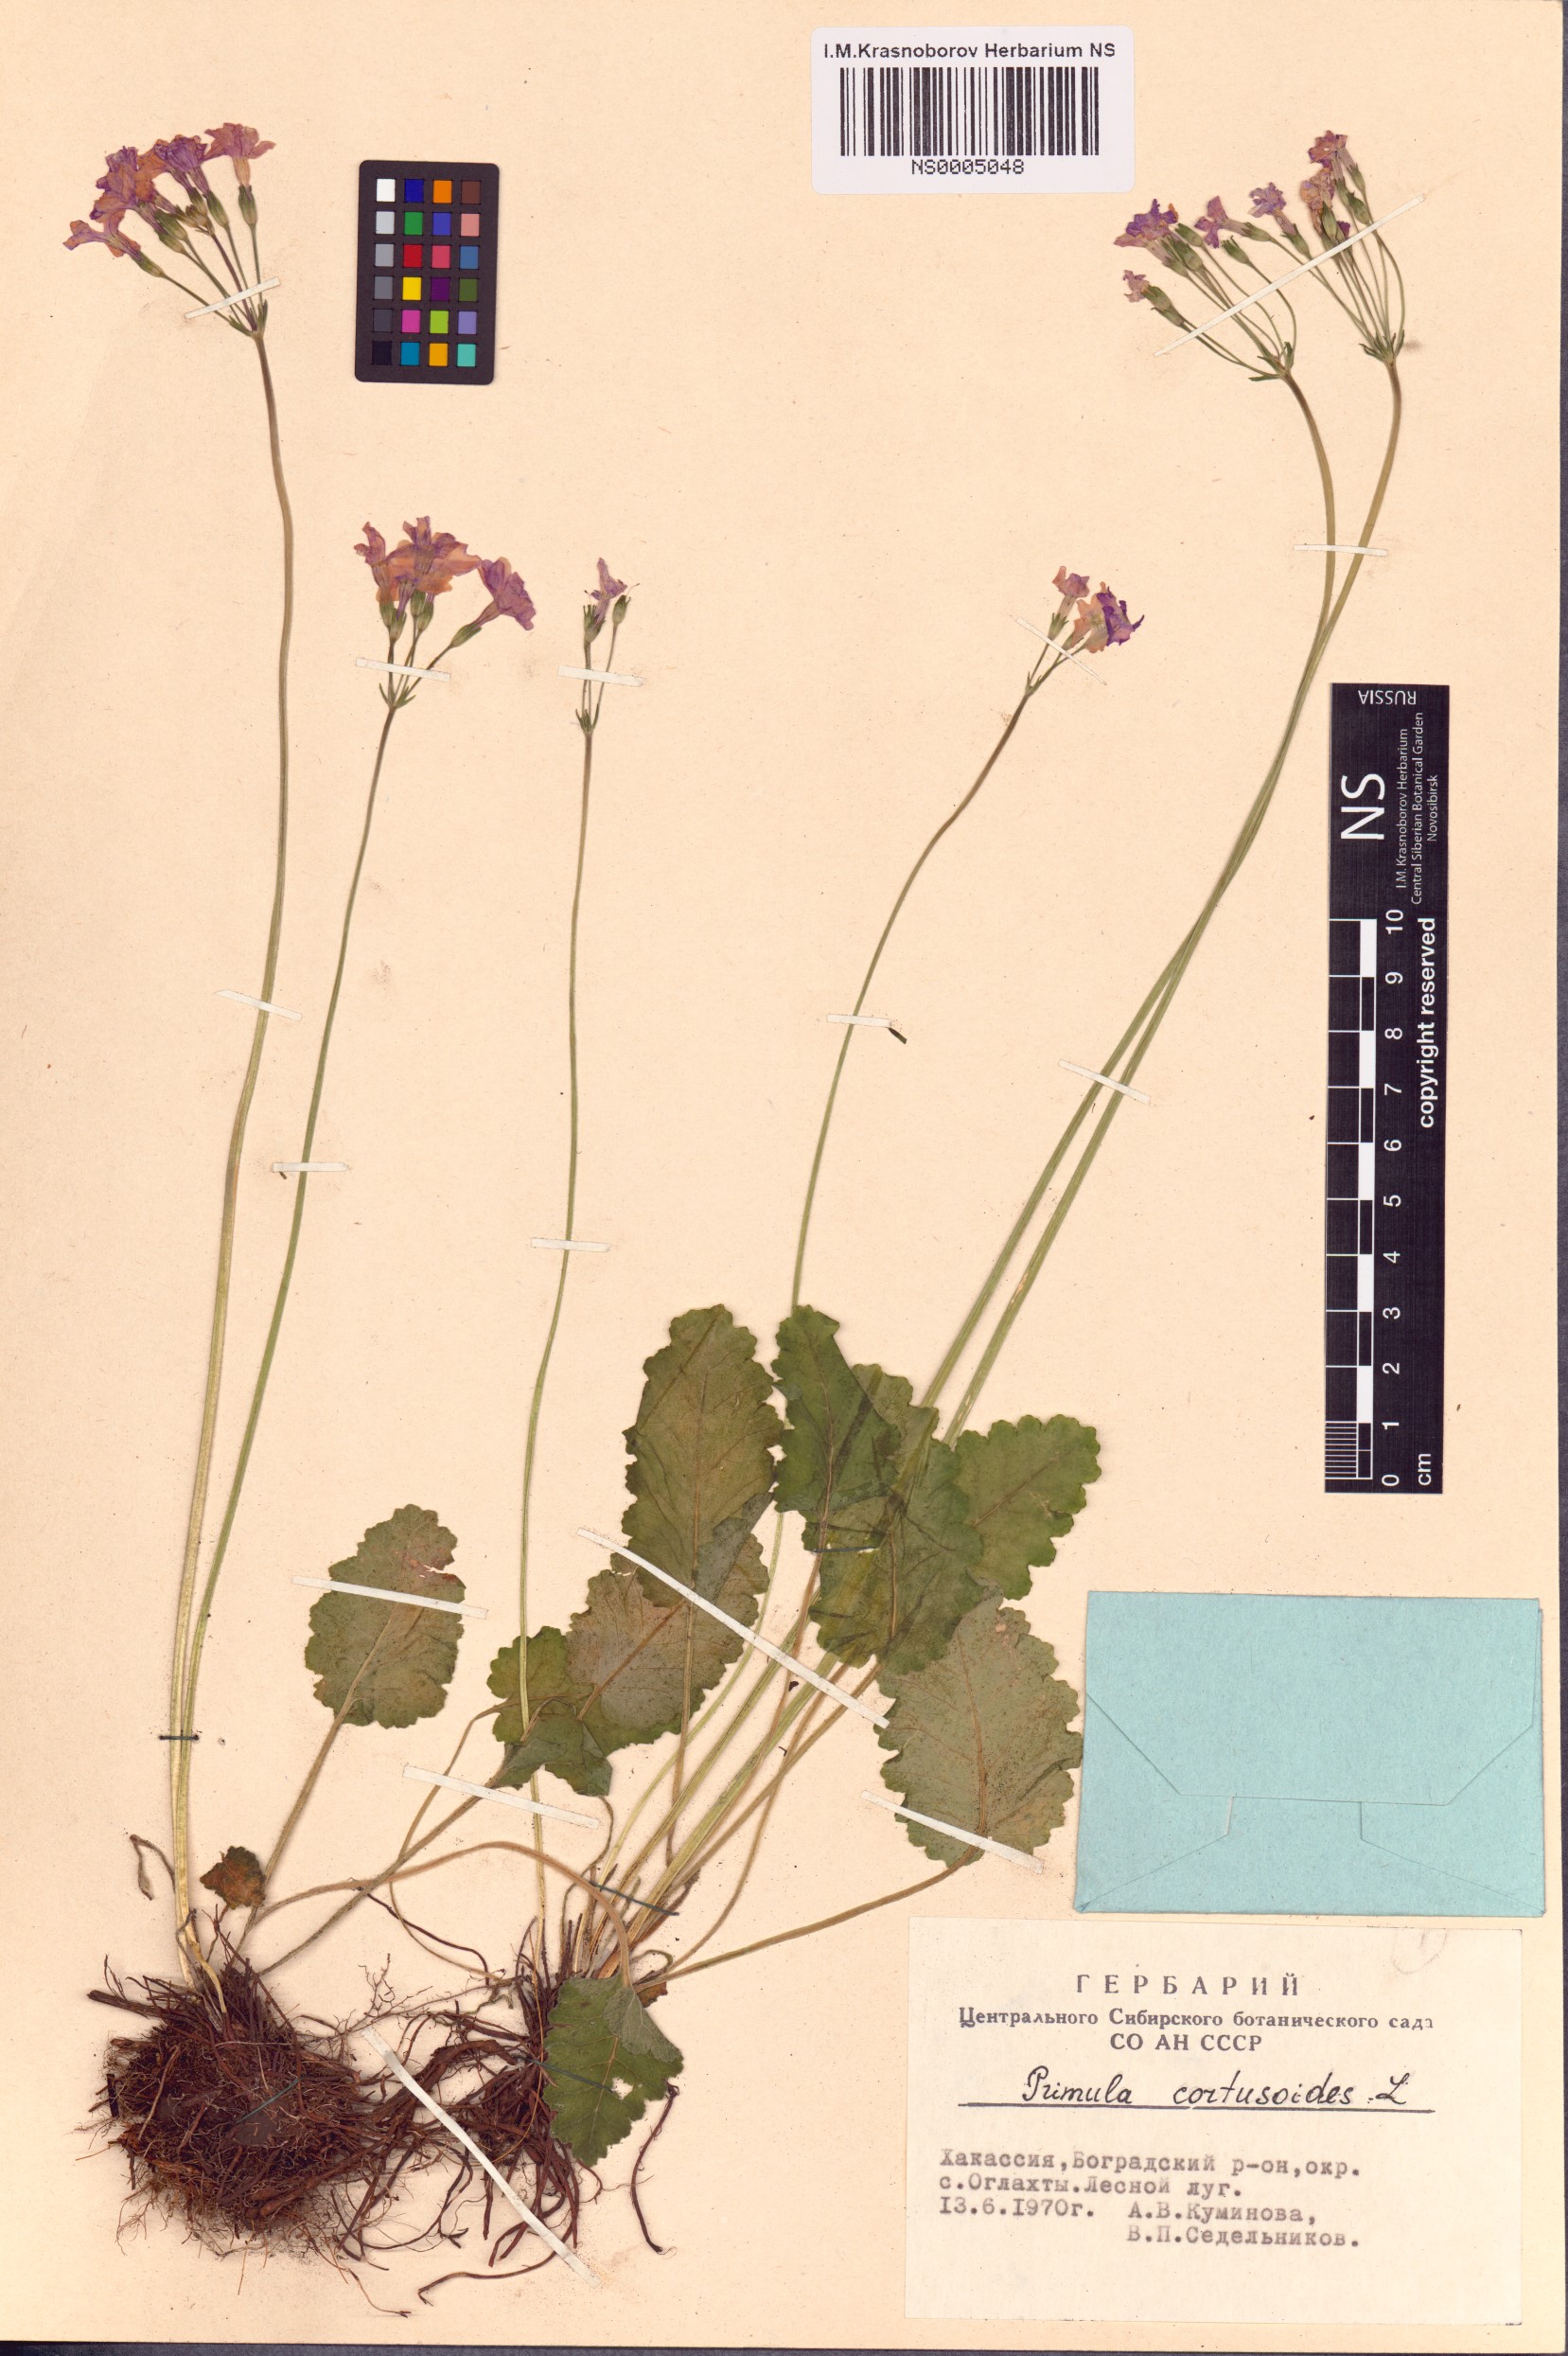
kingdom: Plantae
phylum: Tracheophyta
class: Magnoliopsida
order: Ericales
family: Primulaceae
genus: Primula
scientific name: Primula cortusoides
